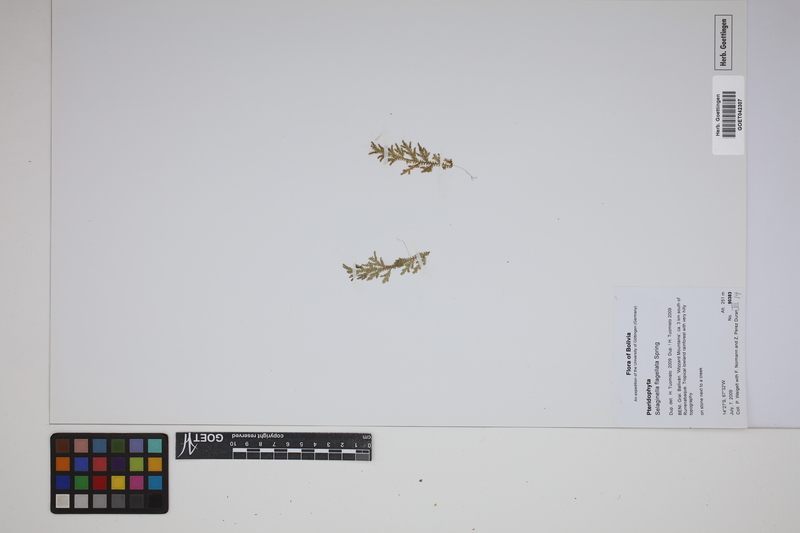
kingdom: Plantae
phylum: Tracheophyta
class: Lycopodiopsida
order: Selaginellales
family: Selaginellaceae
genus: Selaginella
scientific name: Selaginella flagellata
